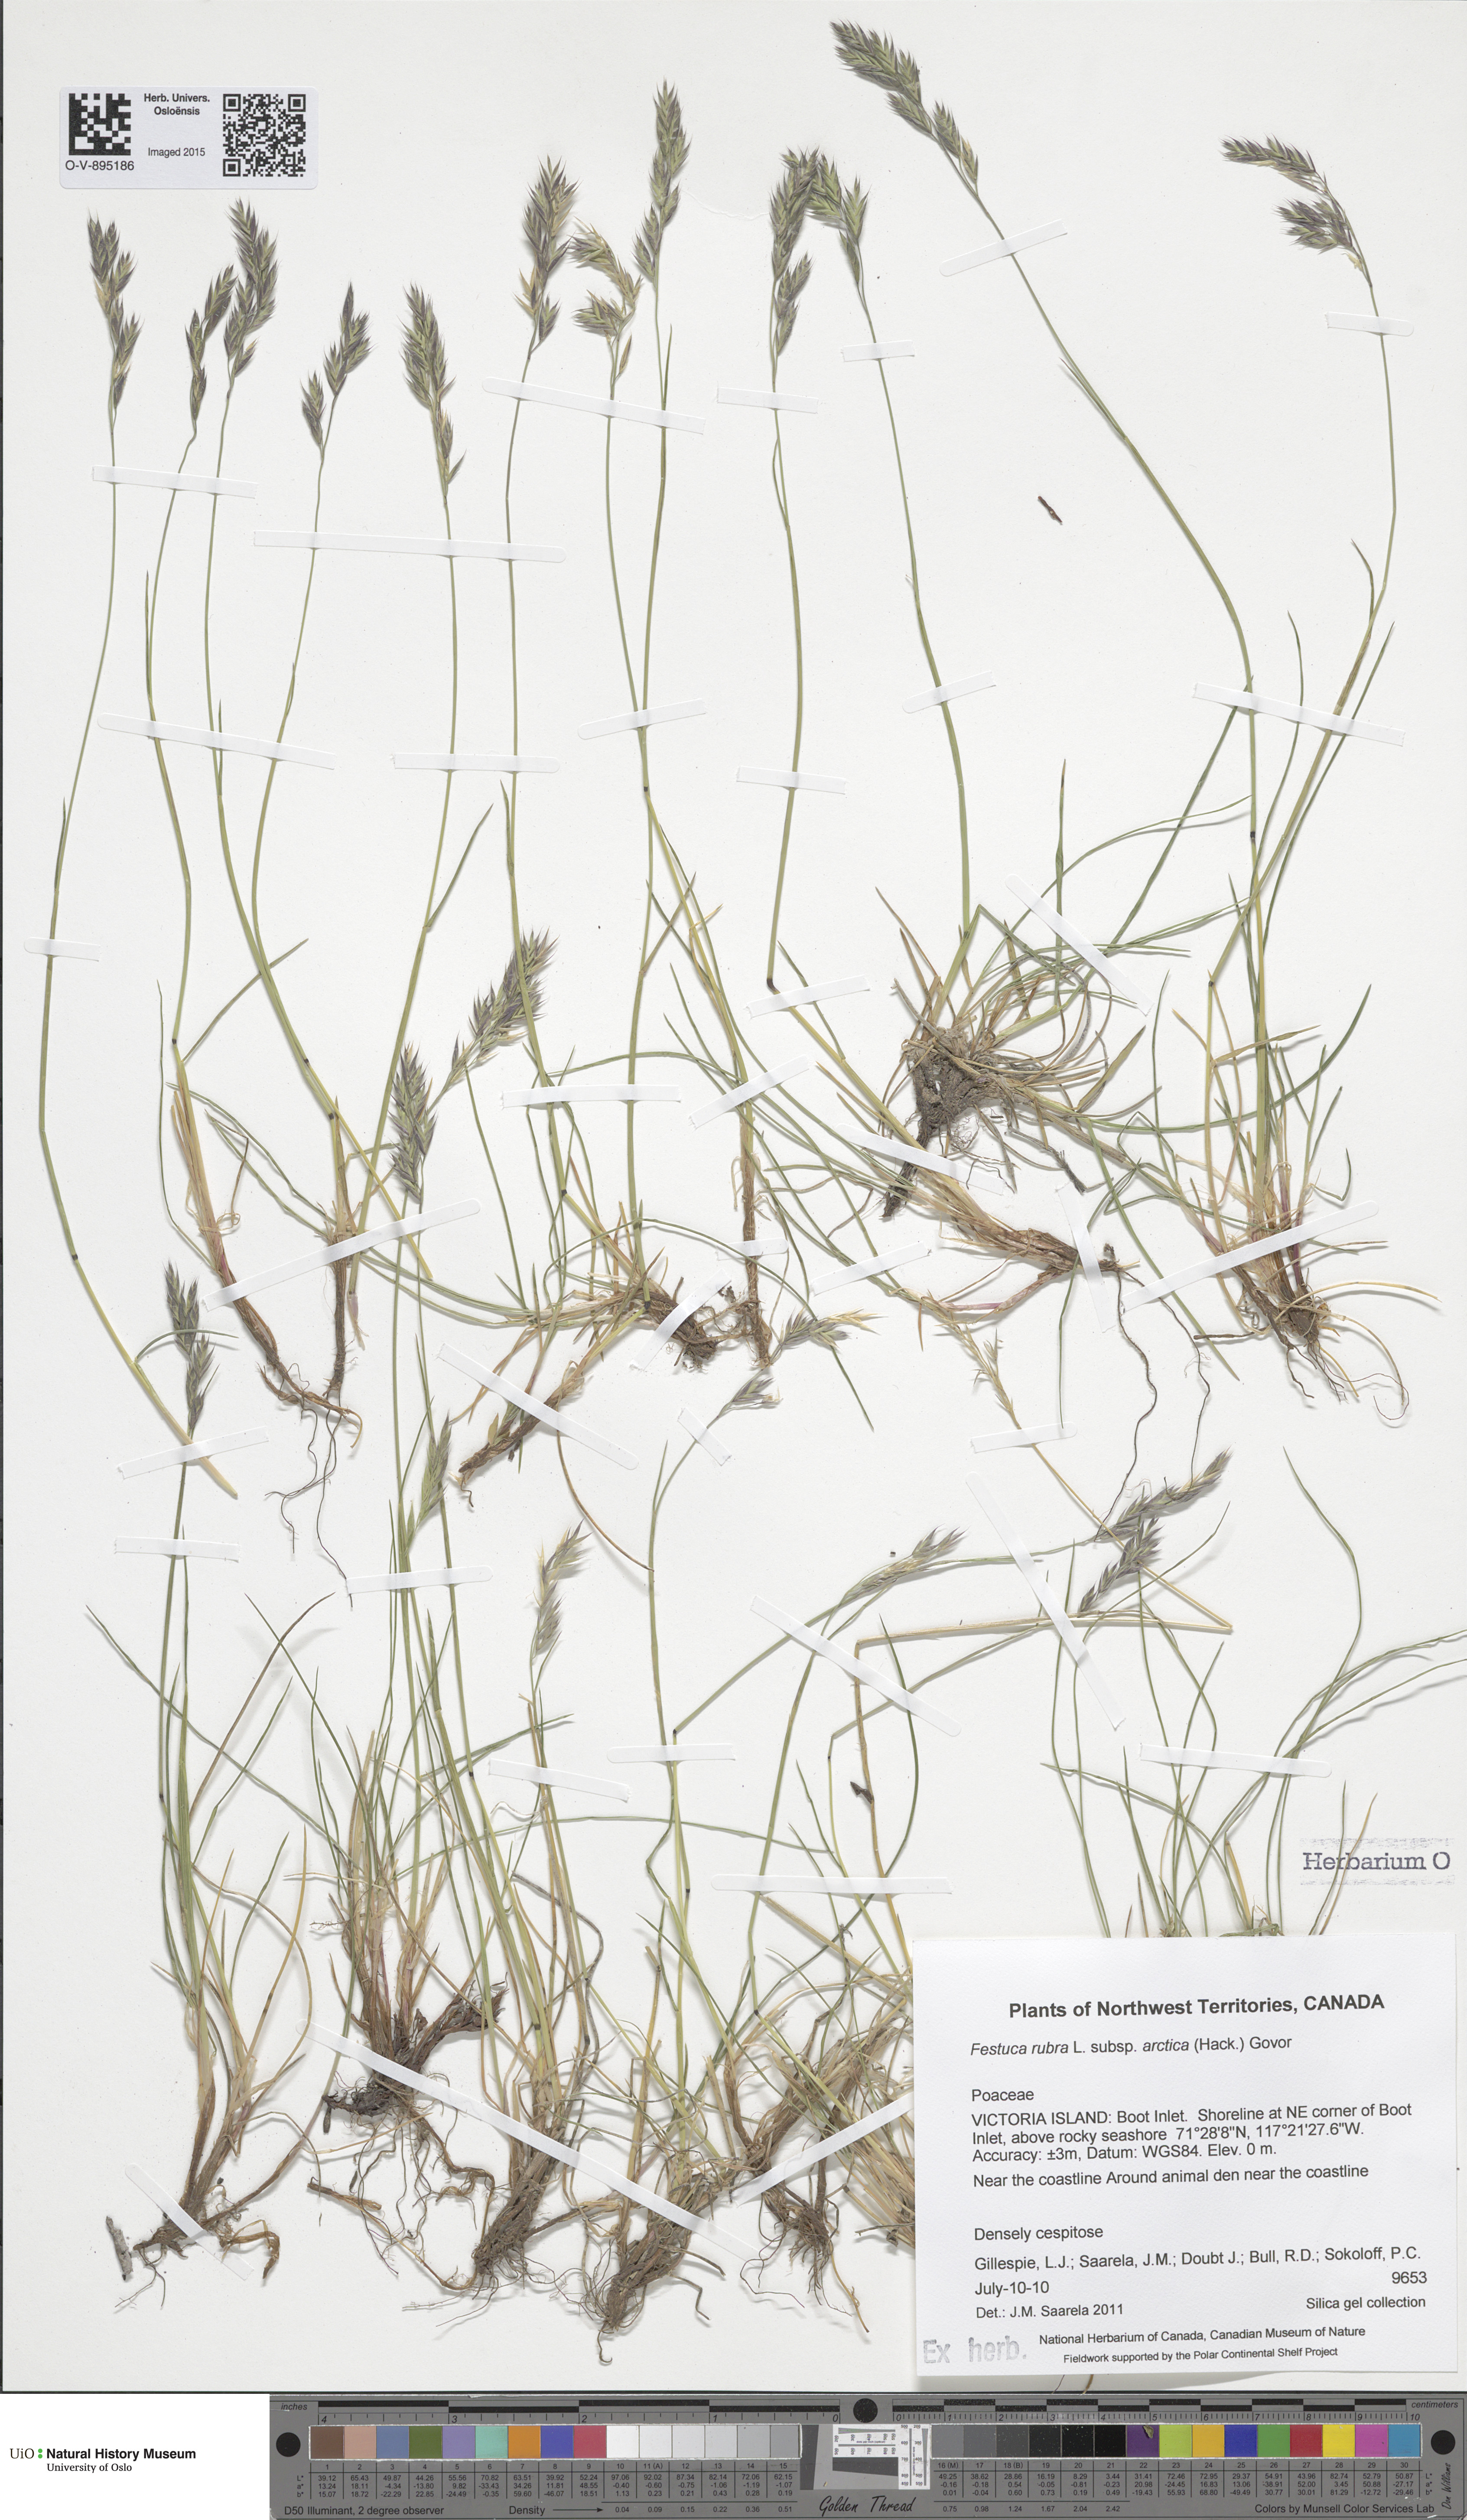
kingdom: Plantae
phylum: Tracheophyta
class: Liliopsida
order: Poales
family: Poaceae
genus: Festuca
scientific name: Festuca richardsonii
